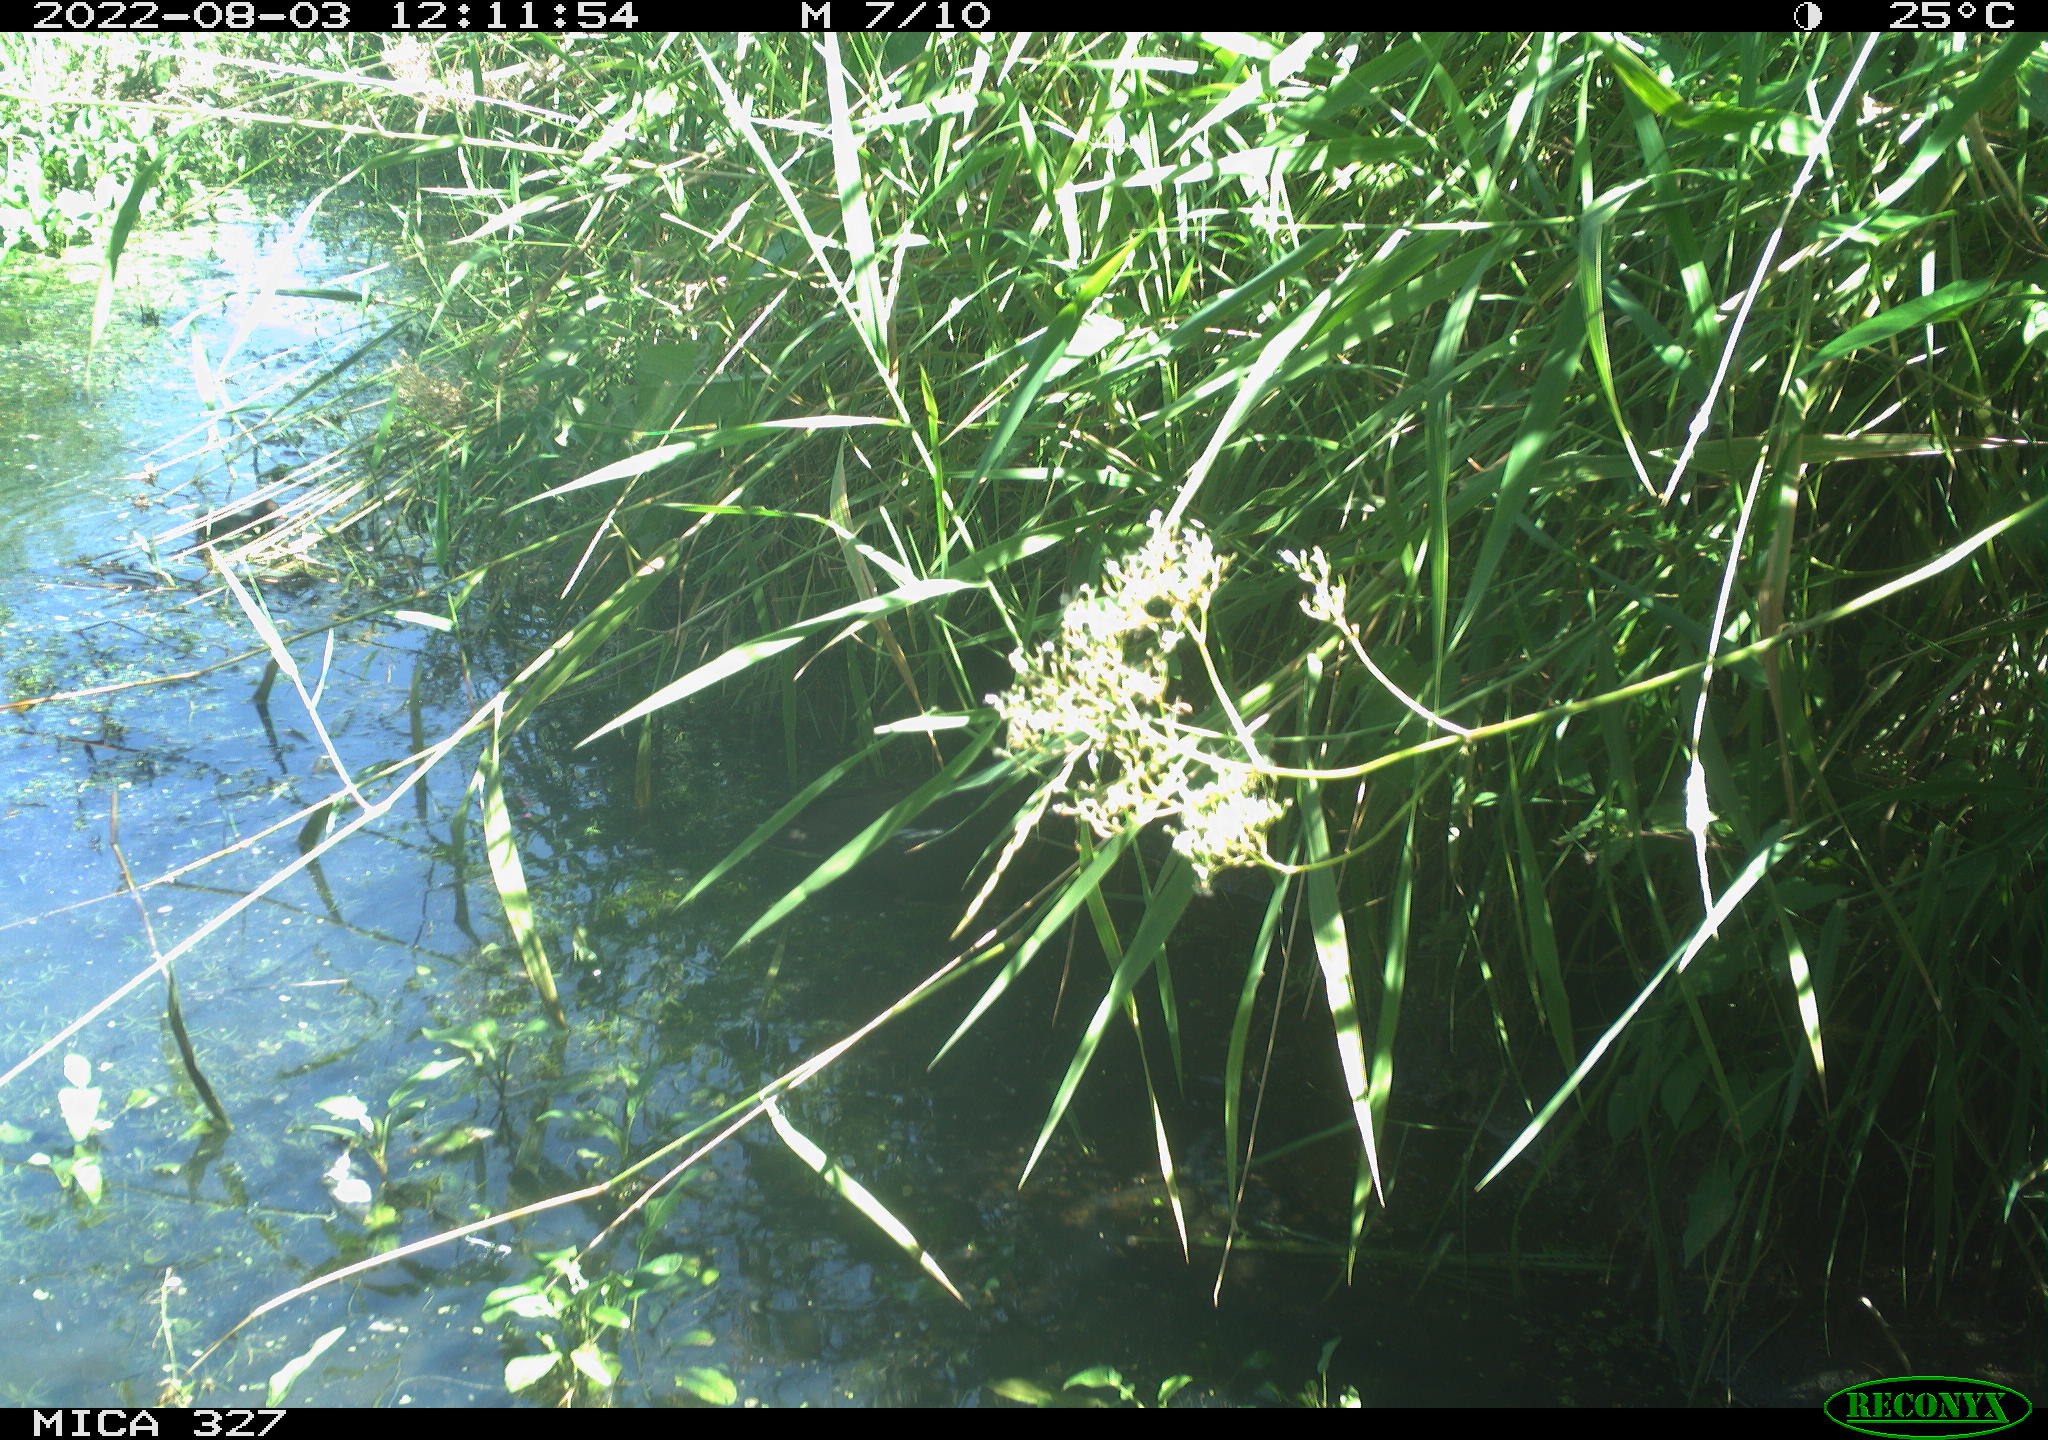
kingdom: Animalia
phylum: Chordata
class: Aves
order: Gruiformes
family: Rallidae
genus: Gallinula
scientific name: Gallinula chloropus
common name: Common moorhen
